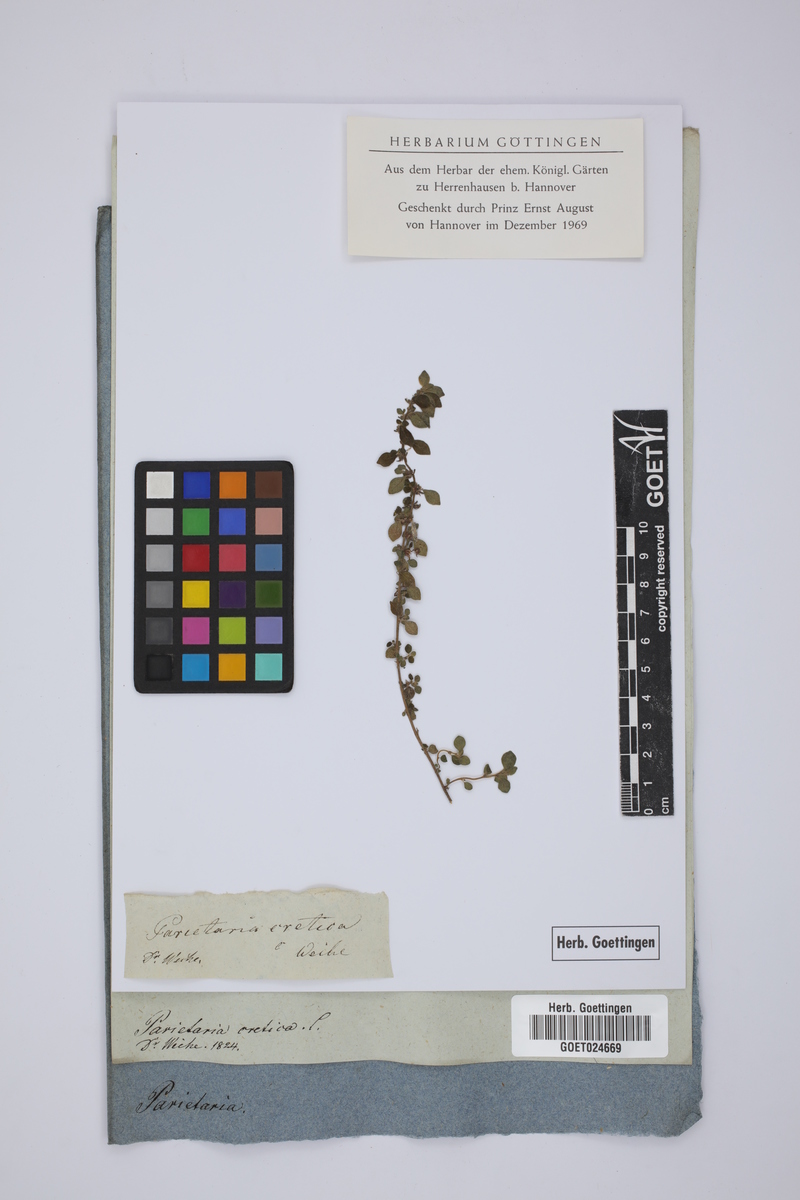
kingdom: Plantae
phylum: Tracheophyta
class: Magnoliopsida
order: Rosales
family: Urticaceae
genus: Parietaria
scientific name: Parietaria cretica
